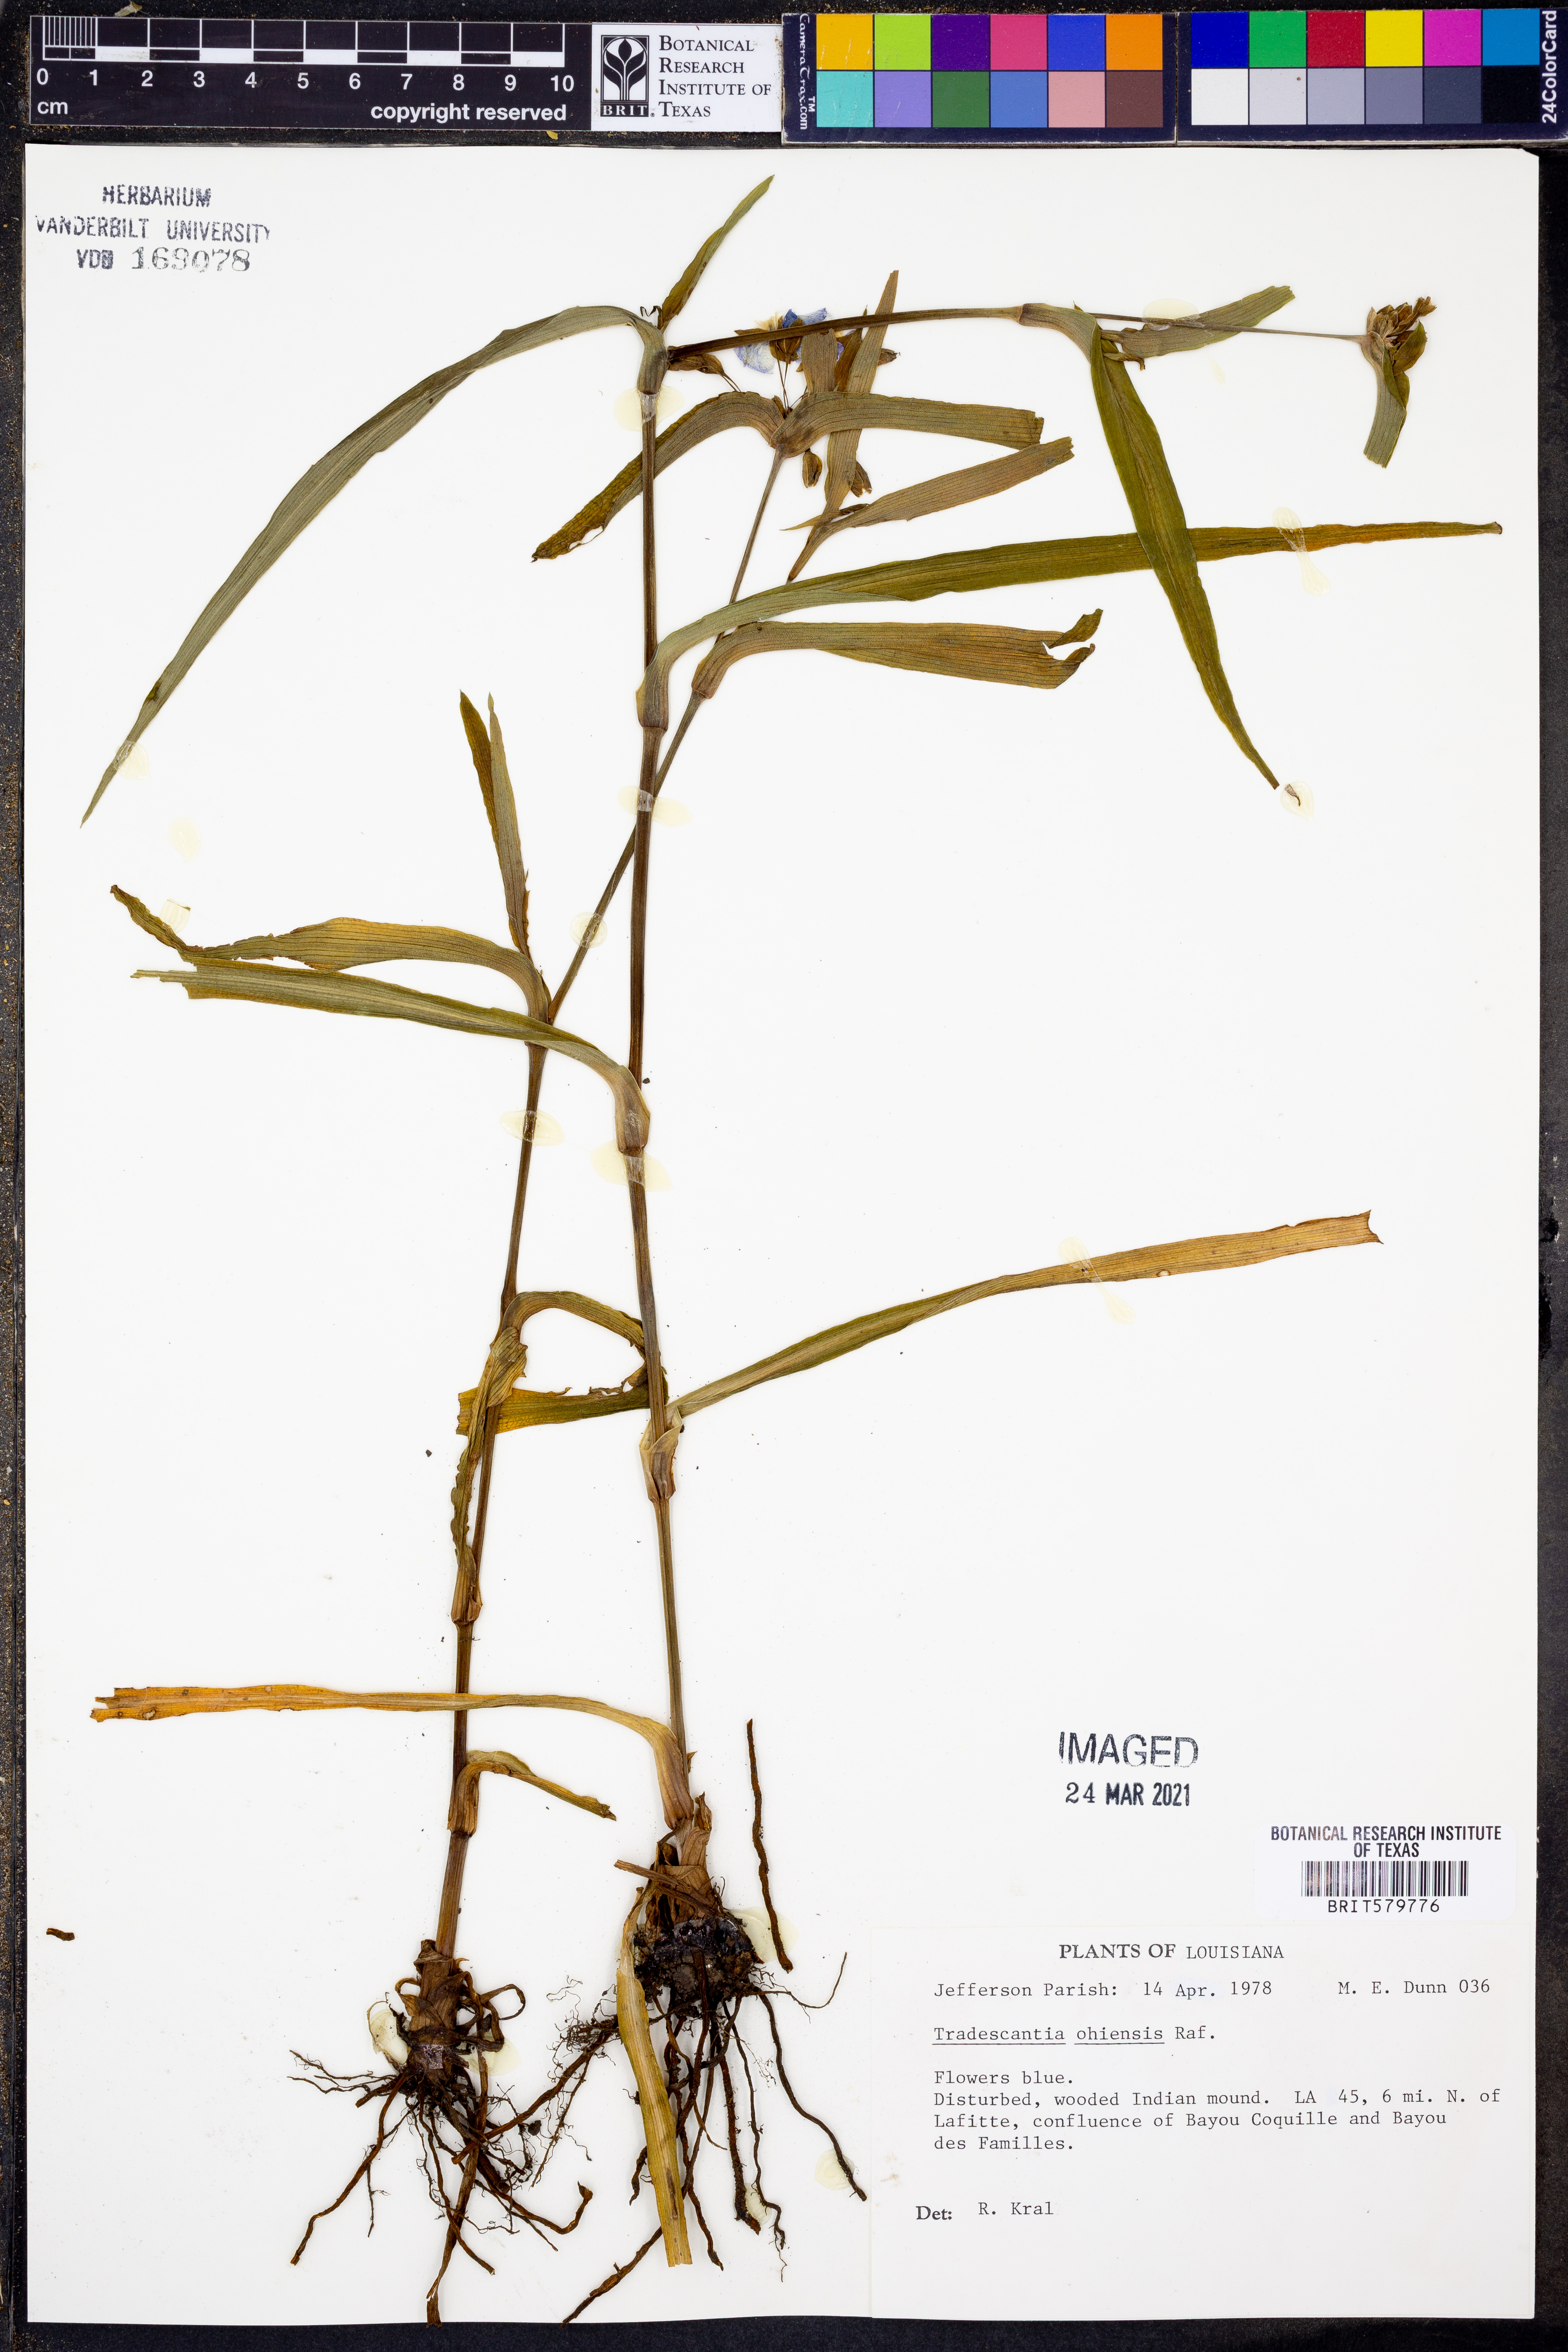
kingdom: Plantae
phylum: Tracheophyta
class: Liliopsida
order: Commelinales
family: Commelinaceae
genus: Tradescantia
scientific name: Tradescantia ohiensis
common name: Ohio spiderwort
